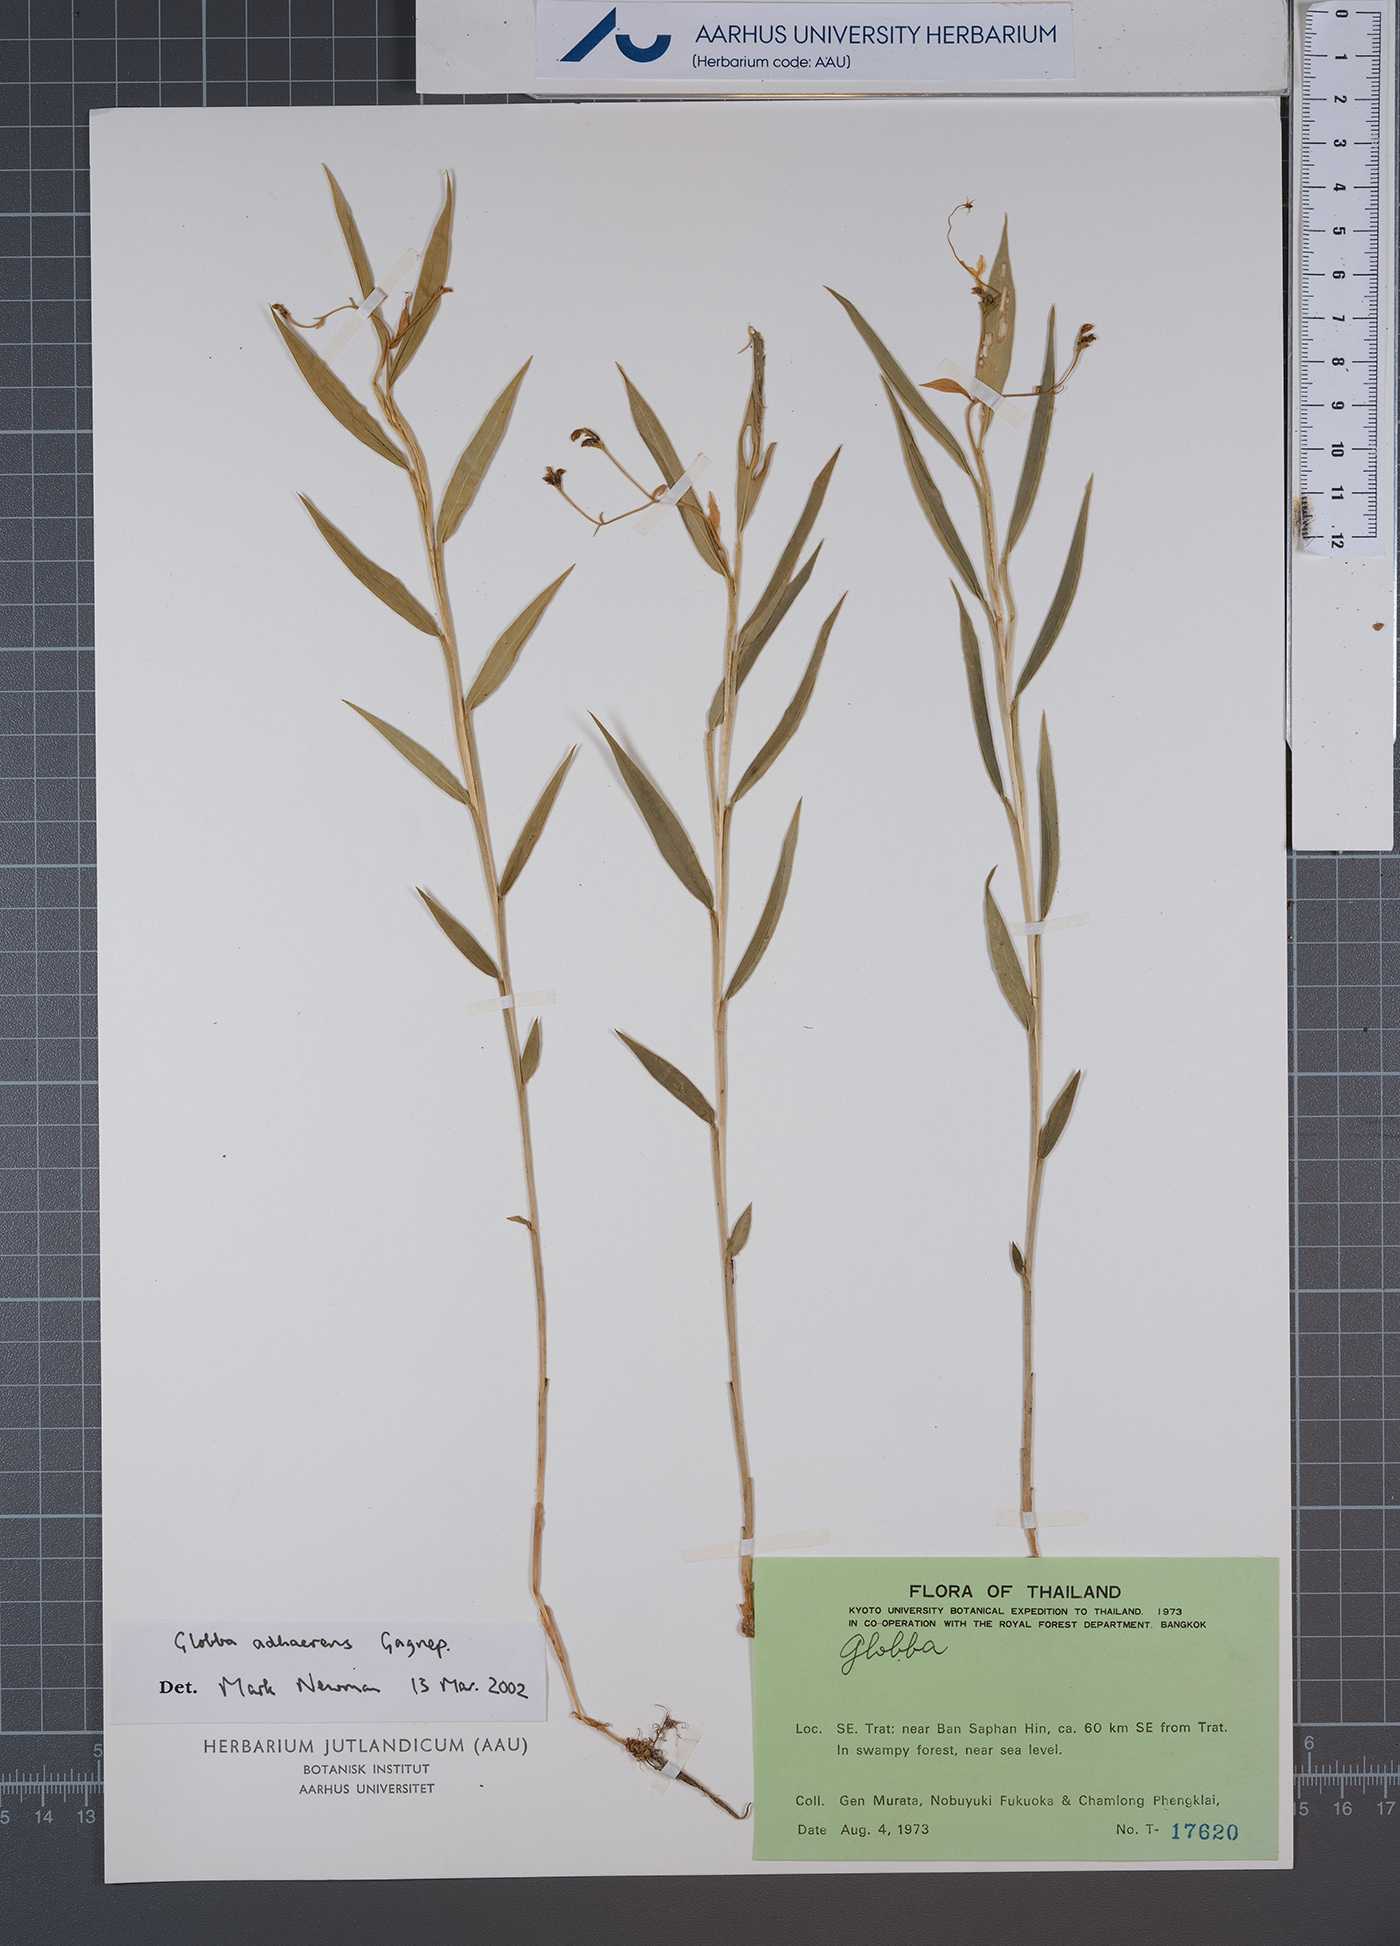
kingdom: Plantae
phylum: Tracheophyta
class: Liliopsida
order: Zingiberales
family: Zingiberaceae
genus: Globba
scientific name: Globba adhaerens
